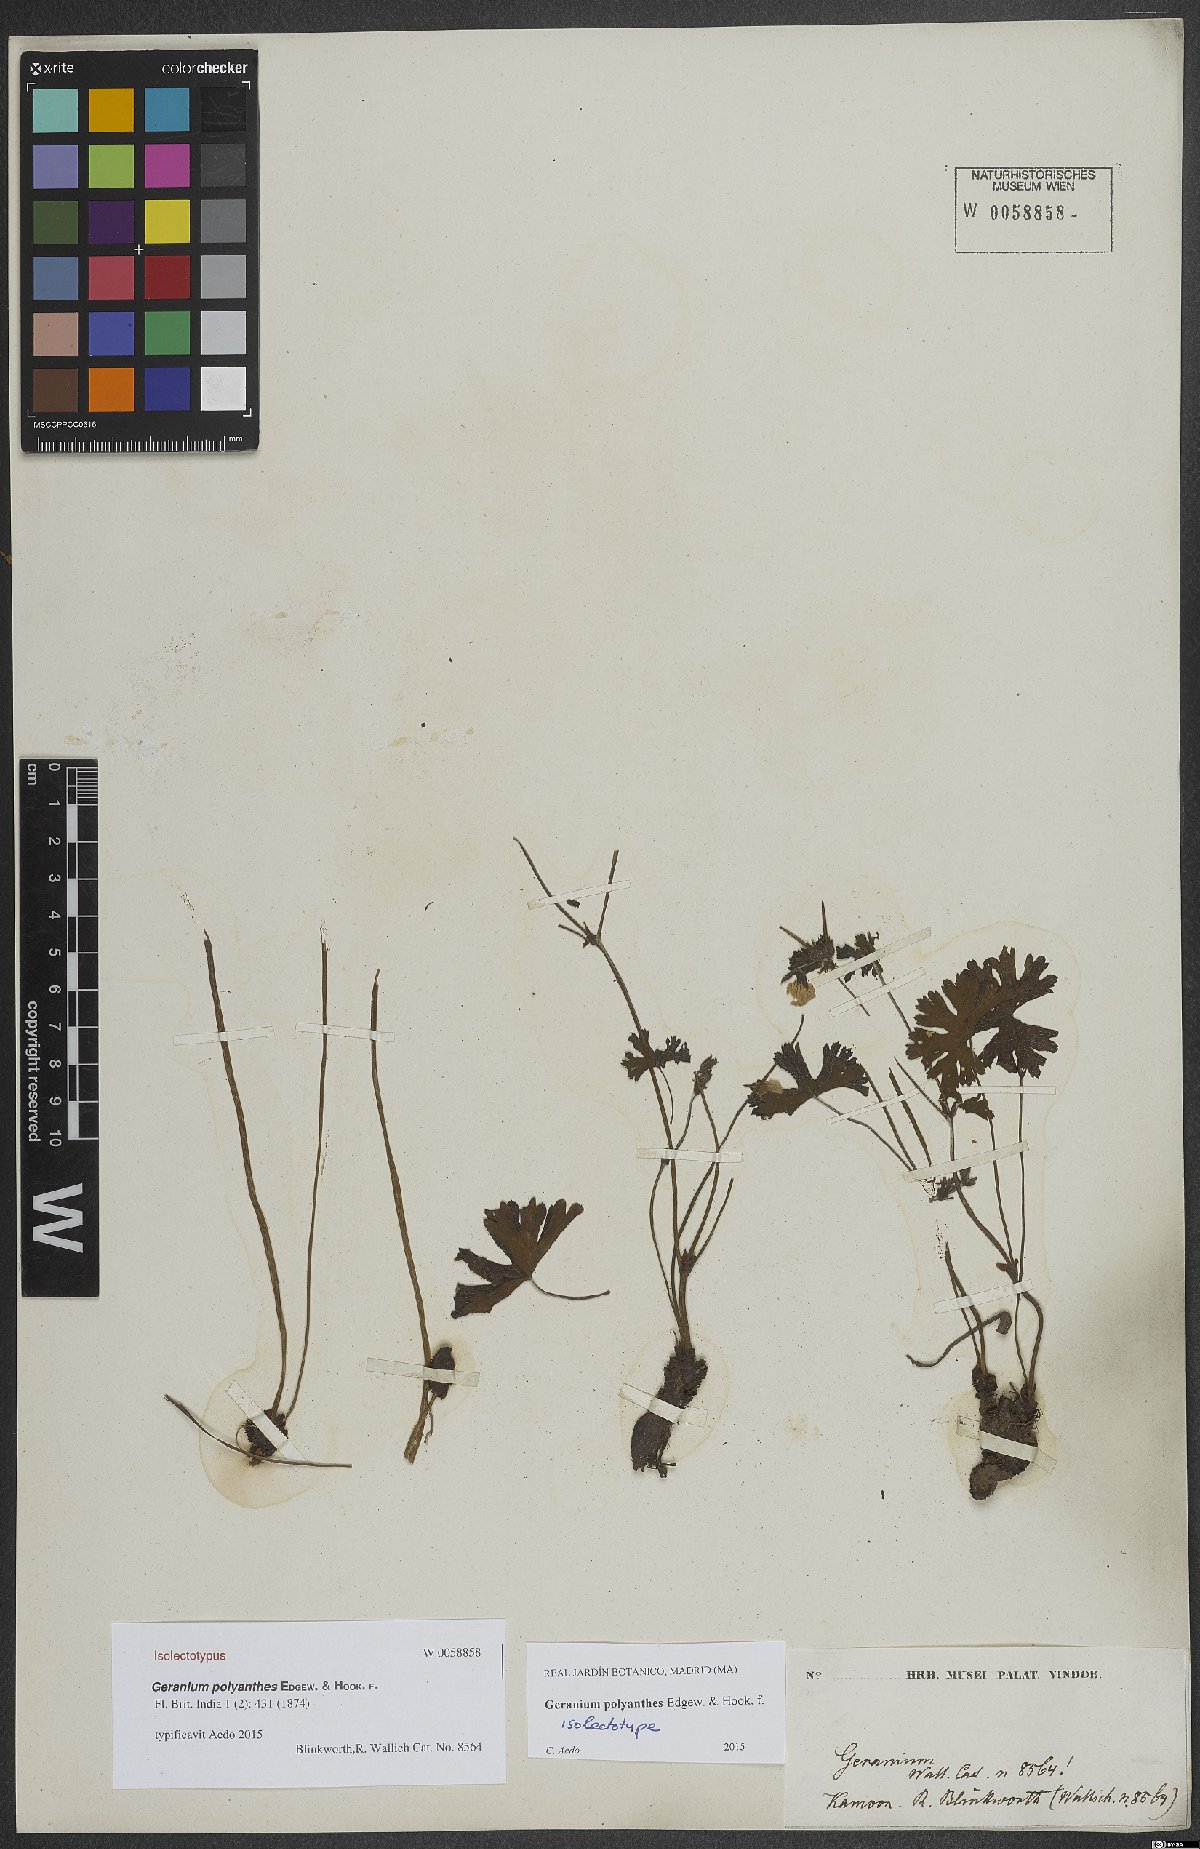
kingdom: Plantae
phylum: Tracheophyta
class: Magnoliopsida
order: Geraniales
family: Geraniaceae
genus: Geranium
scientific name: Geranium polyanthes
